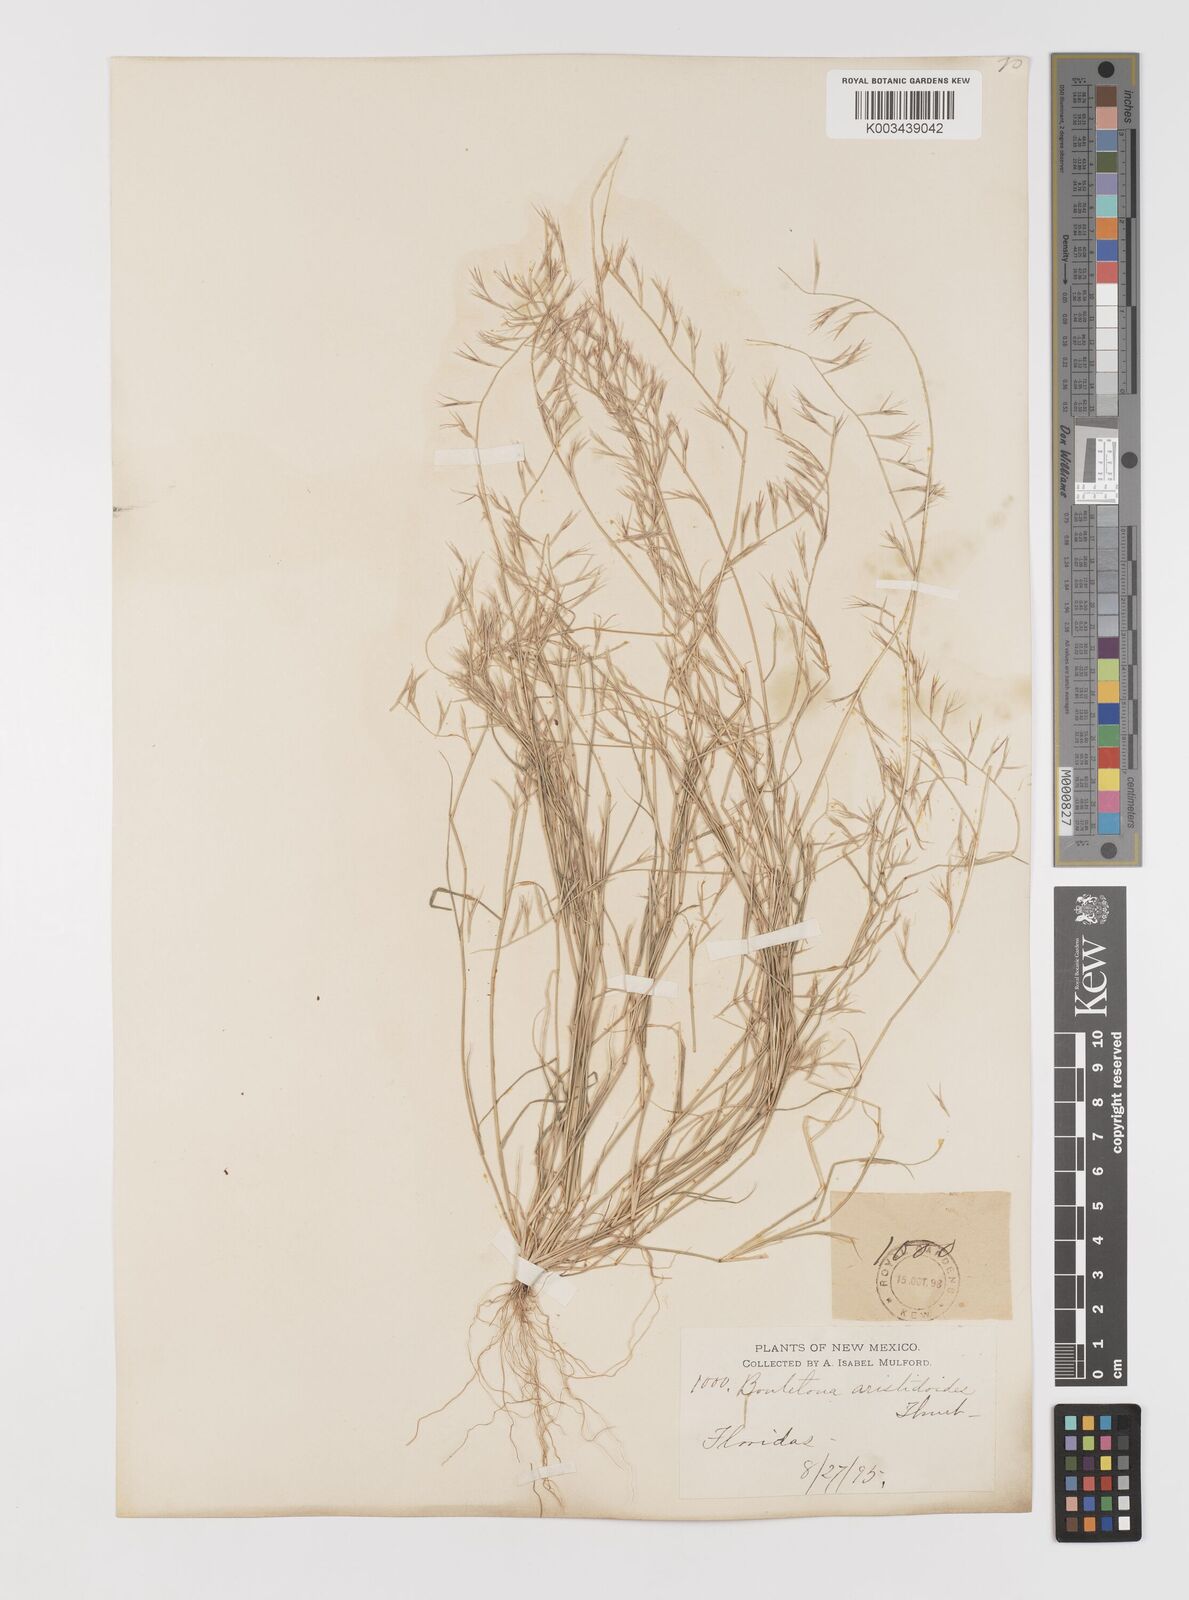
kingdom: Plantae
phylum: Tracheophyta
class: Liliopsida
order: Poales
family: Poaceae
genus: Bouteloua
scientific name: Bouteloua aristidoides
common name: Needle grama
